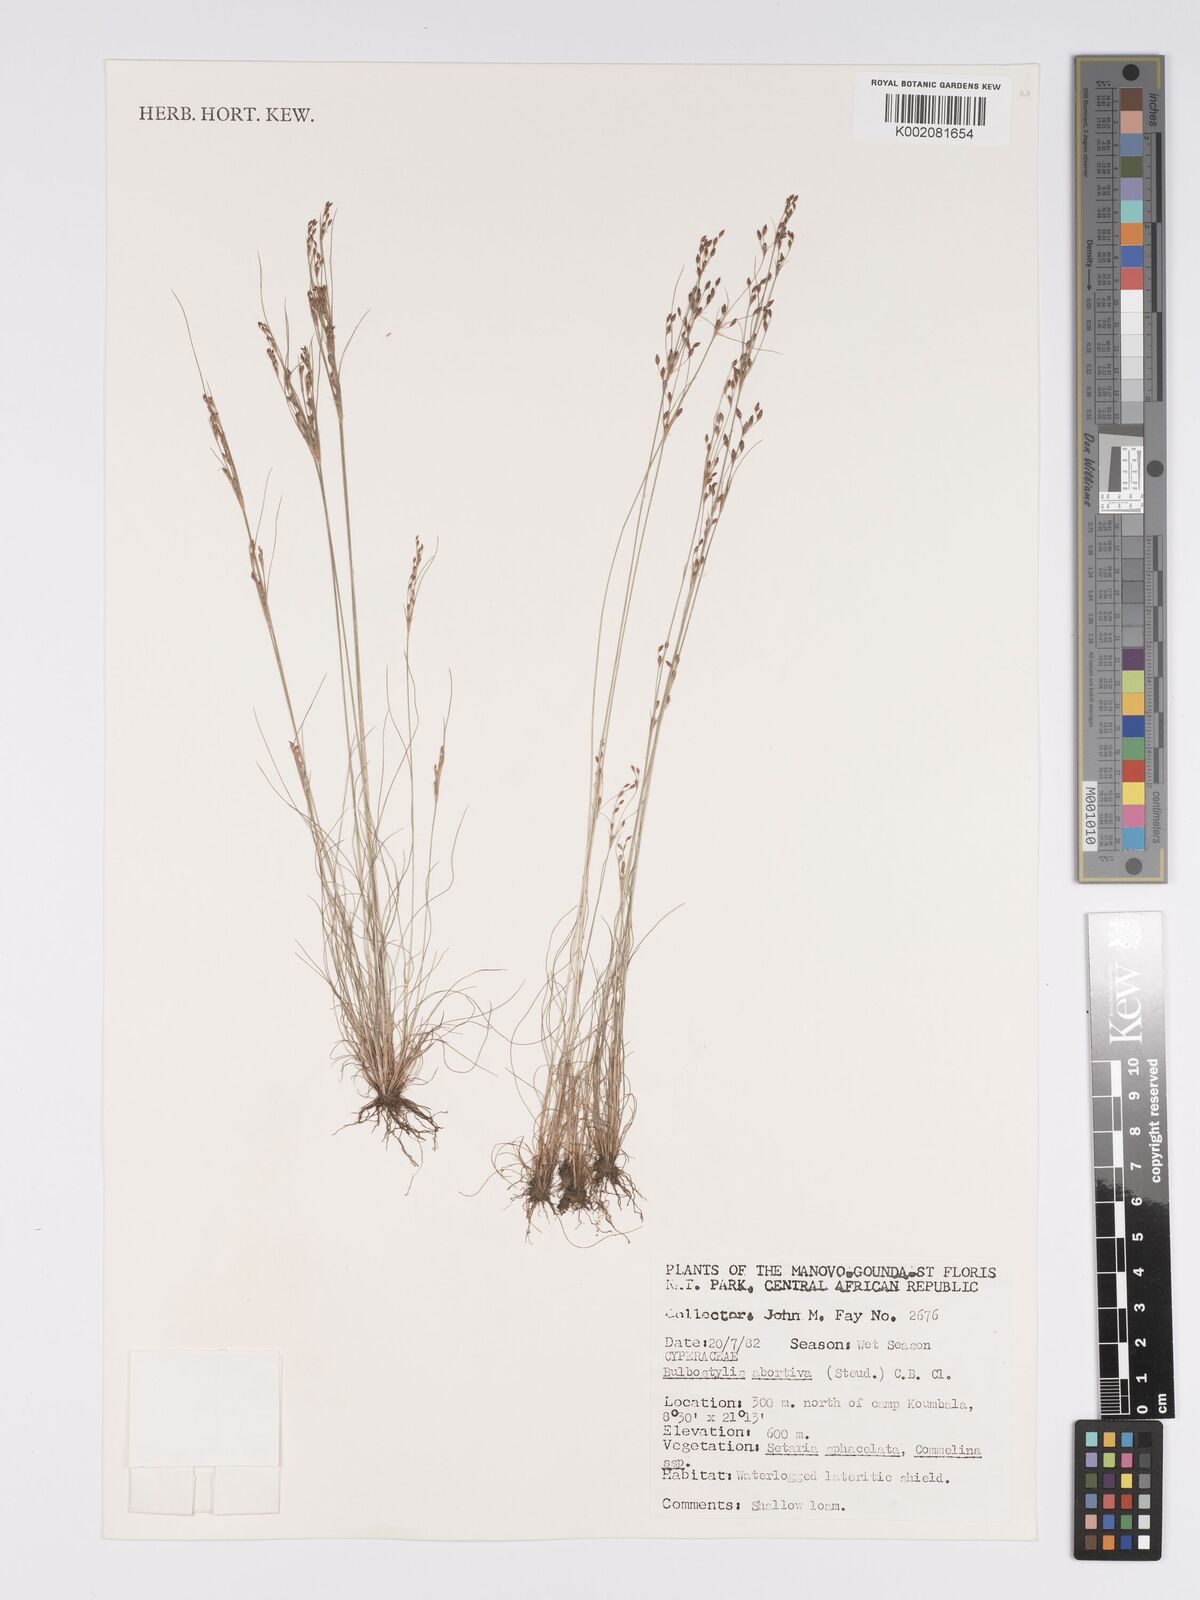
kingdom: Plantae
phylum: Tracheophyta
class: Liliopsida
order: Poales
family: Cyperaceae
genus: Bulbostylis
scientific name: Bulbostylis abortiva
